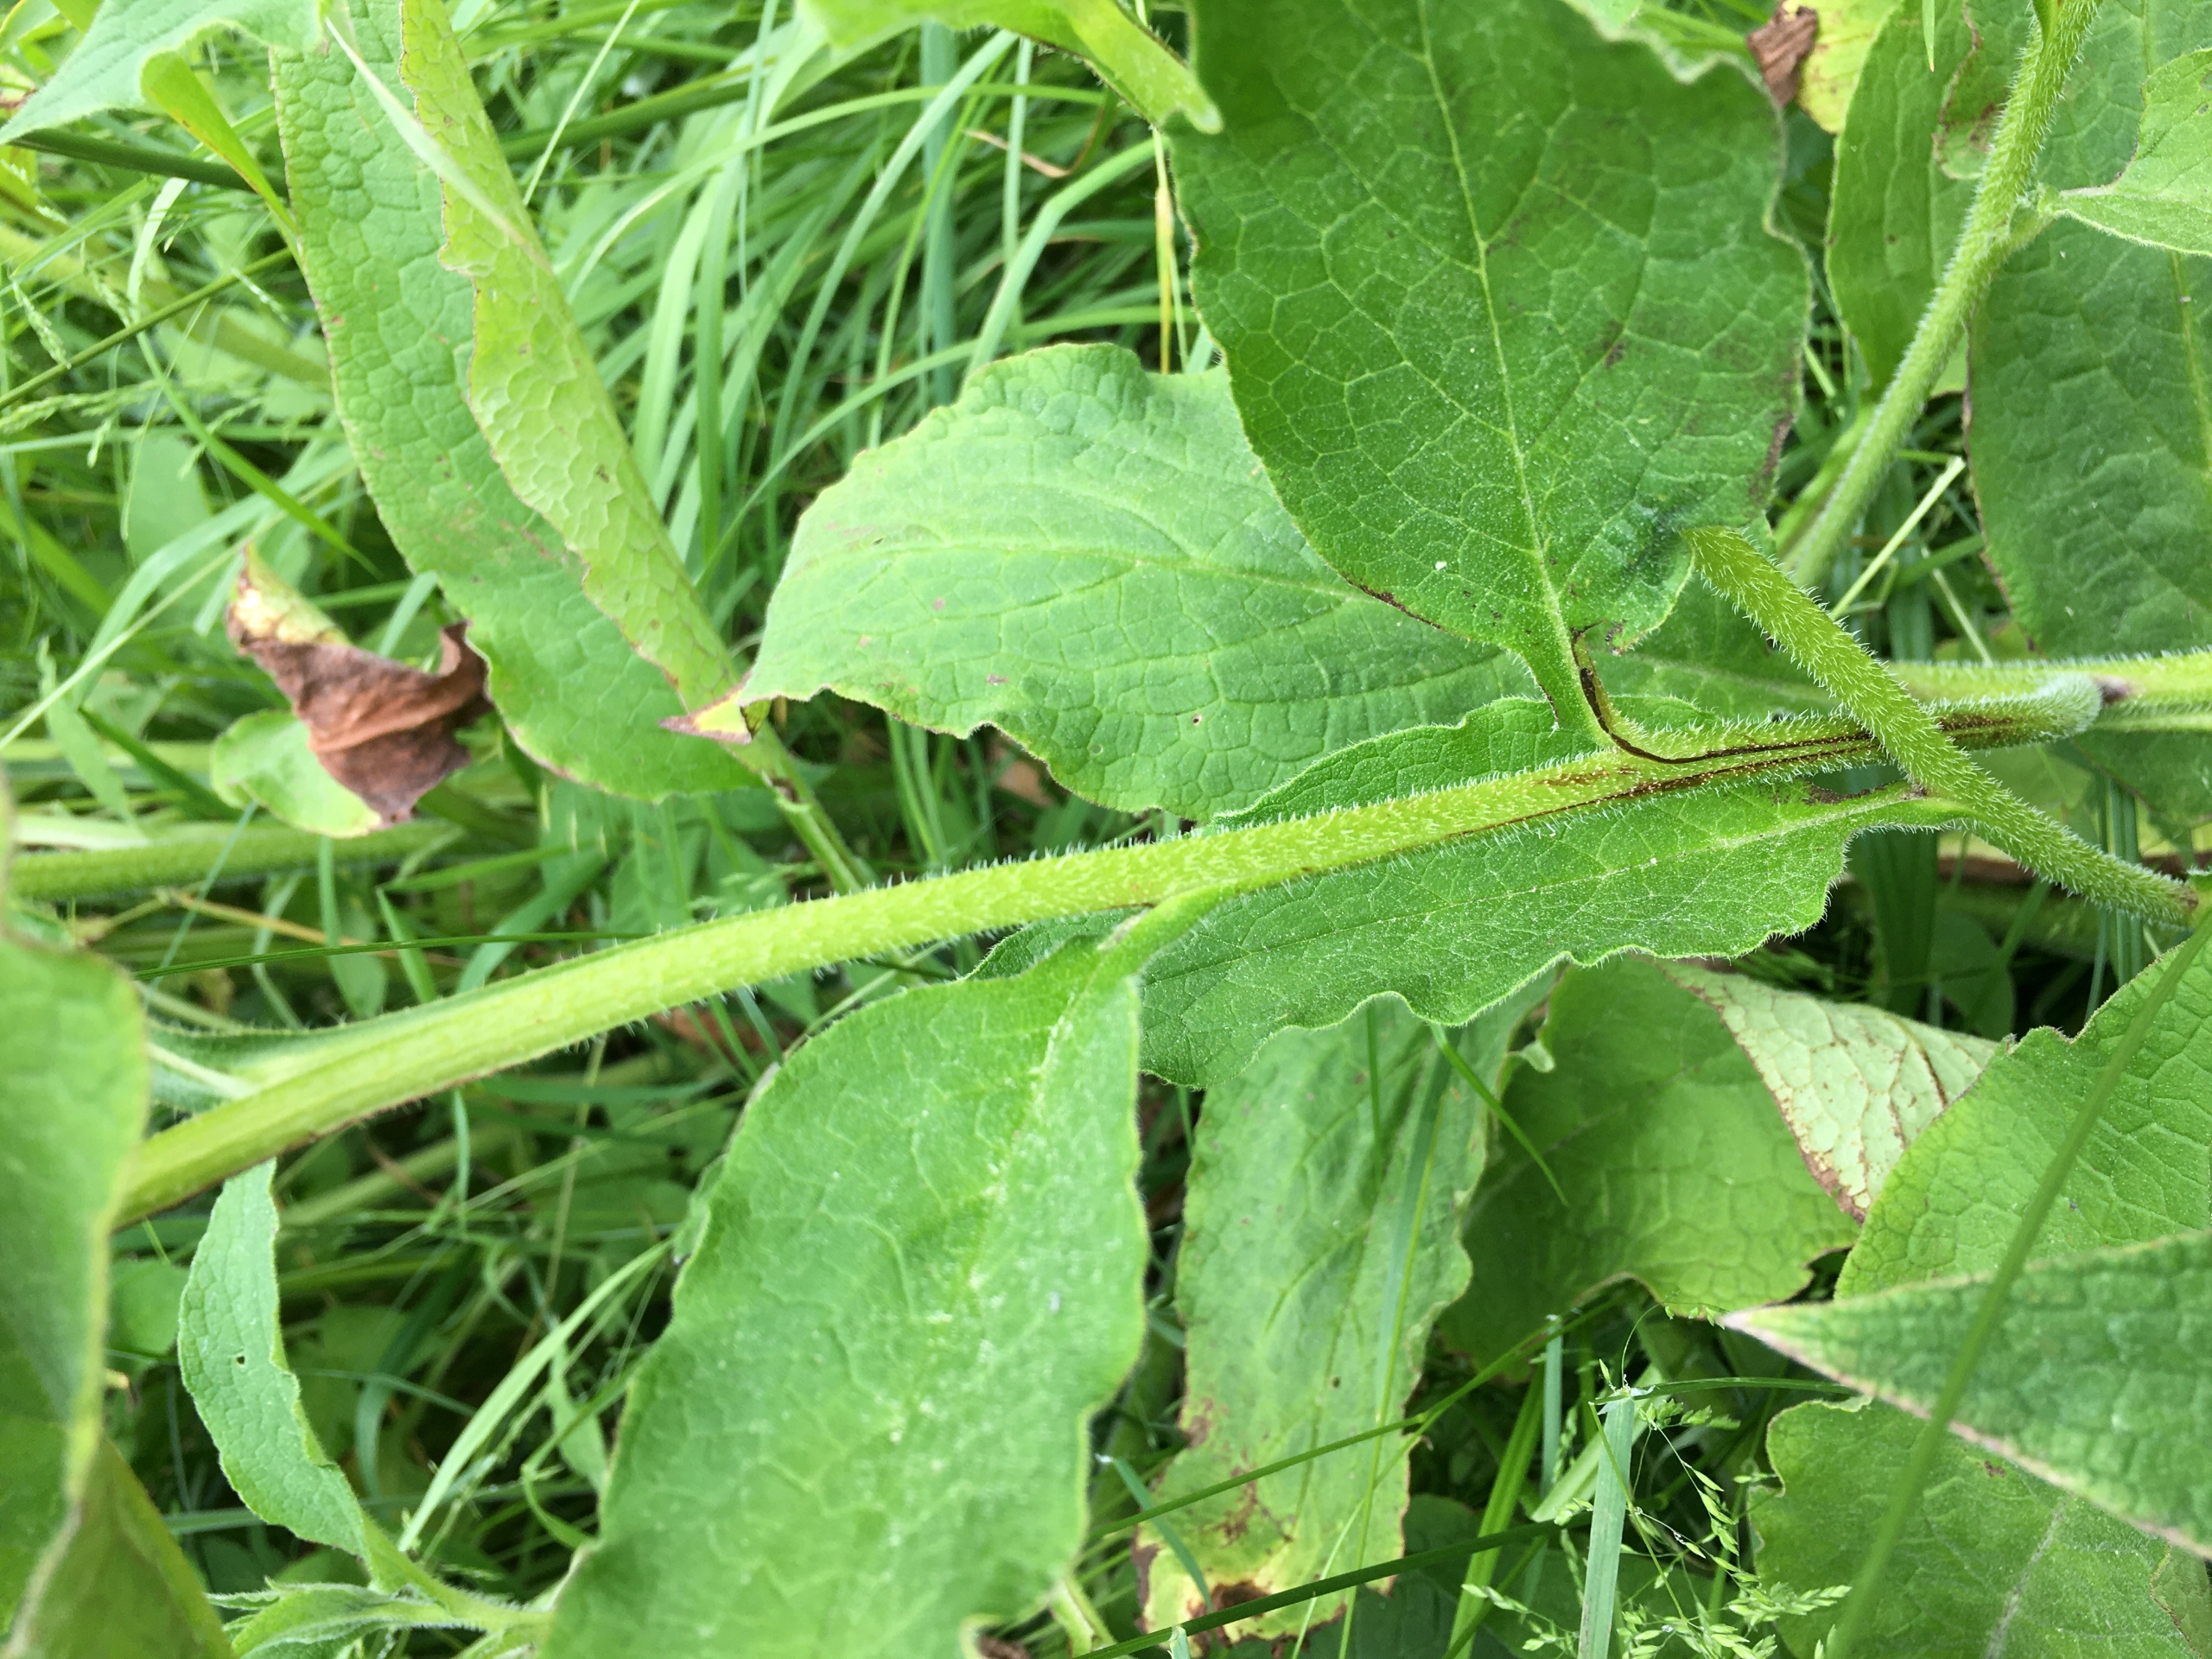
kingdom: Plantae
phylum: Tracheophyta
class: Magnoliopsida
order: Boraginales
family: Boraginaceae
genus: Symphytum
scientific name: Symphytum uplandicum
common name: Foder-kulsukker
